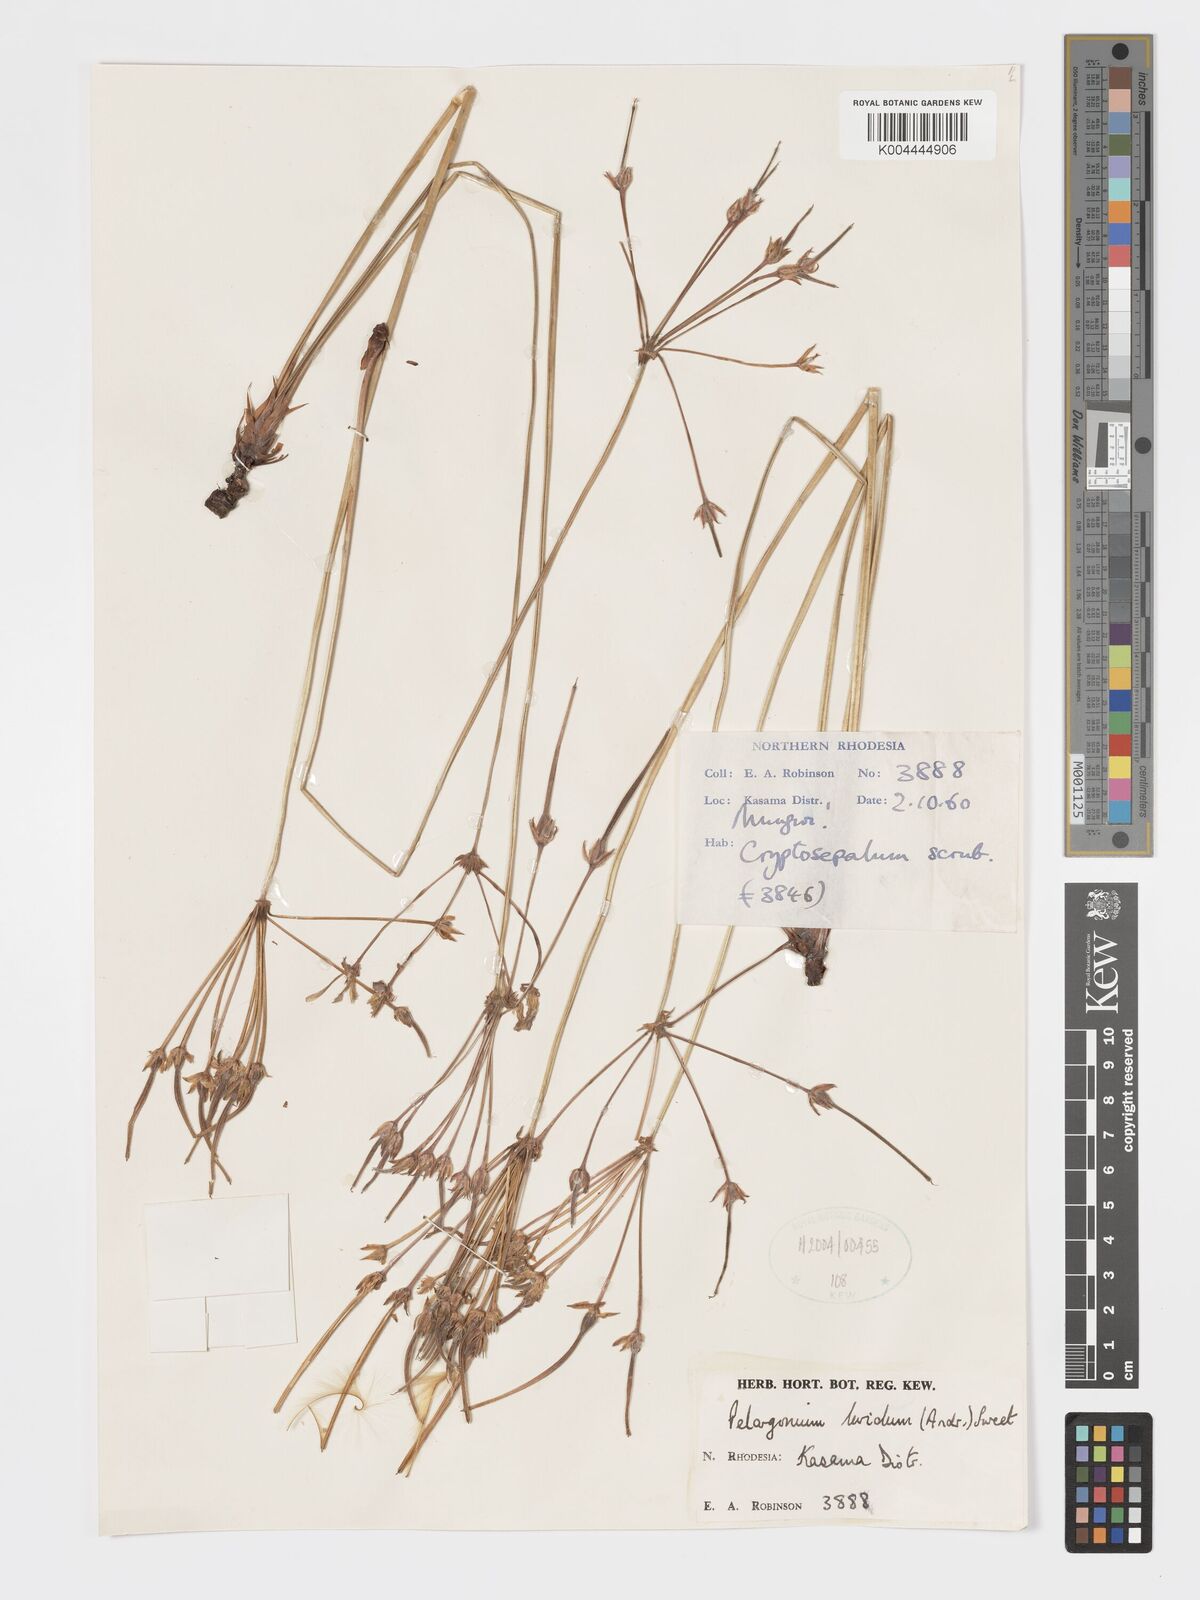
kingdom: Plantae
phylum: Tracheophyta
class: Magnoliopsida
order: Geraniales
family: Geraniaceae
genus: Pelargonium
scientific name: Pelargonium luridum
